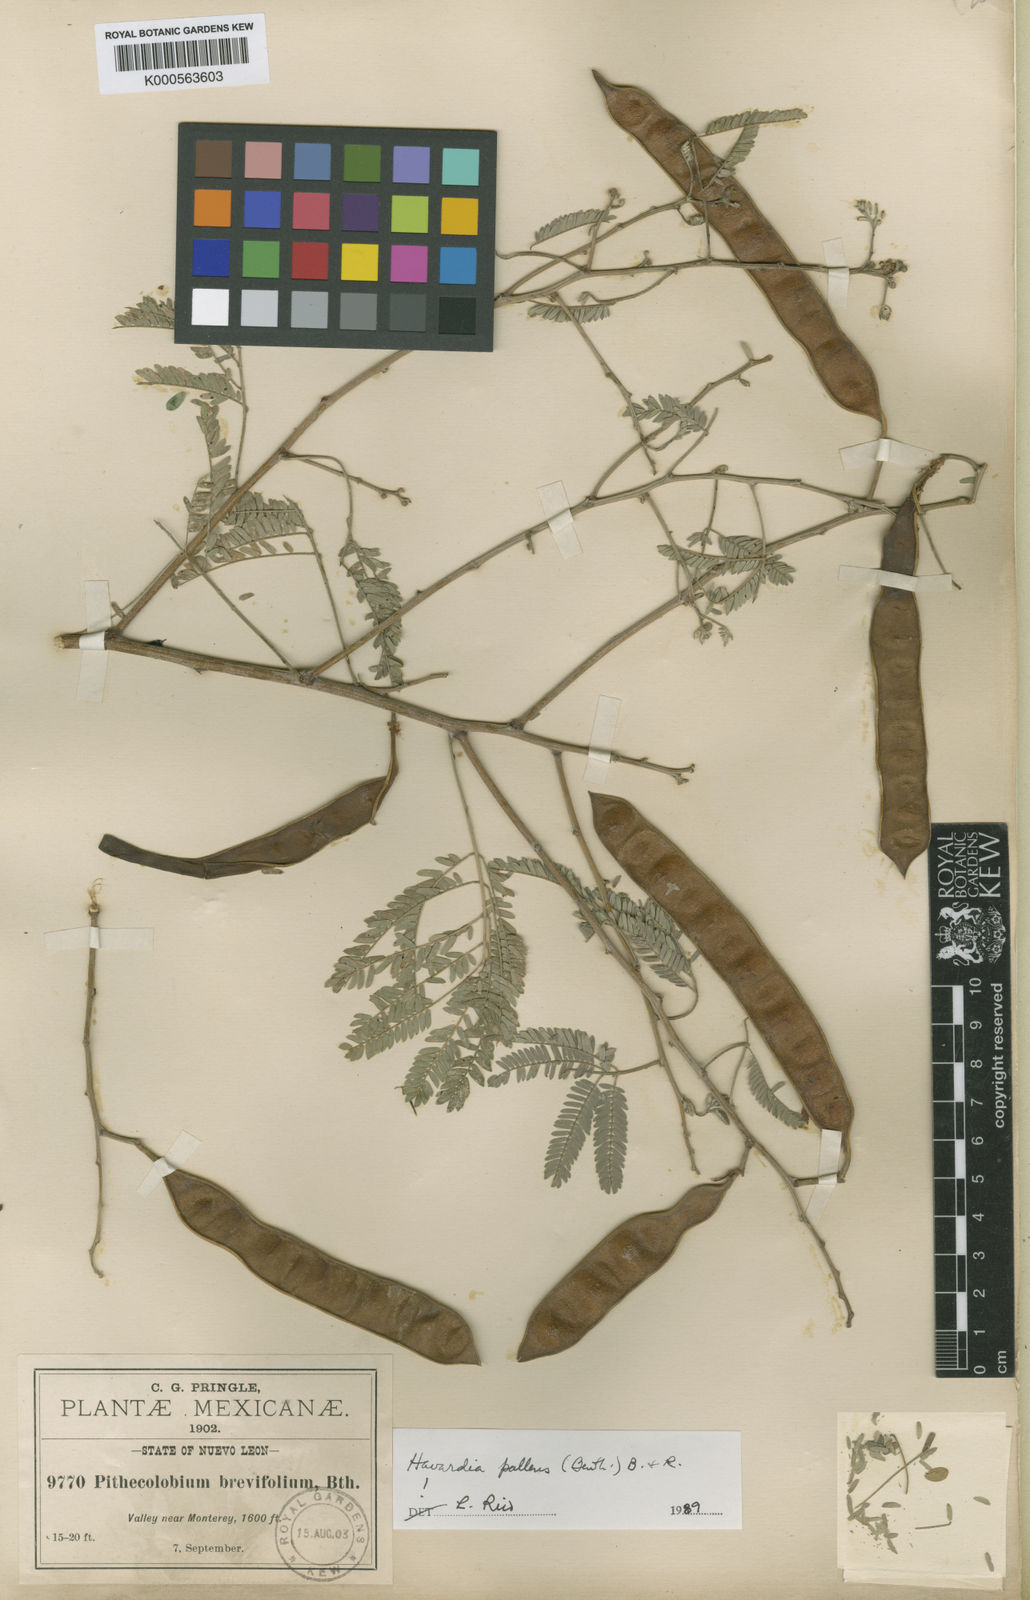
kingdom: Plantae
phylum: Tracheophyta
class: Magnoliopsida
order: Fabales
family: Fabaceae
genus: Havardia
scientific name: Havardia pallens
